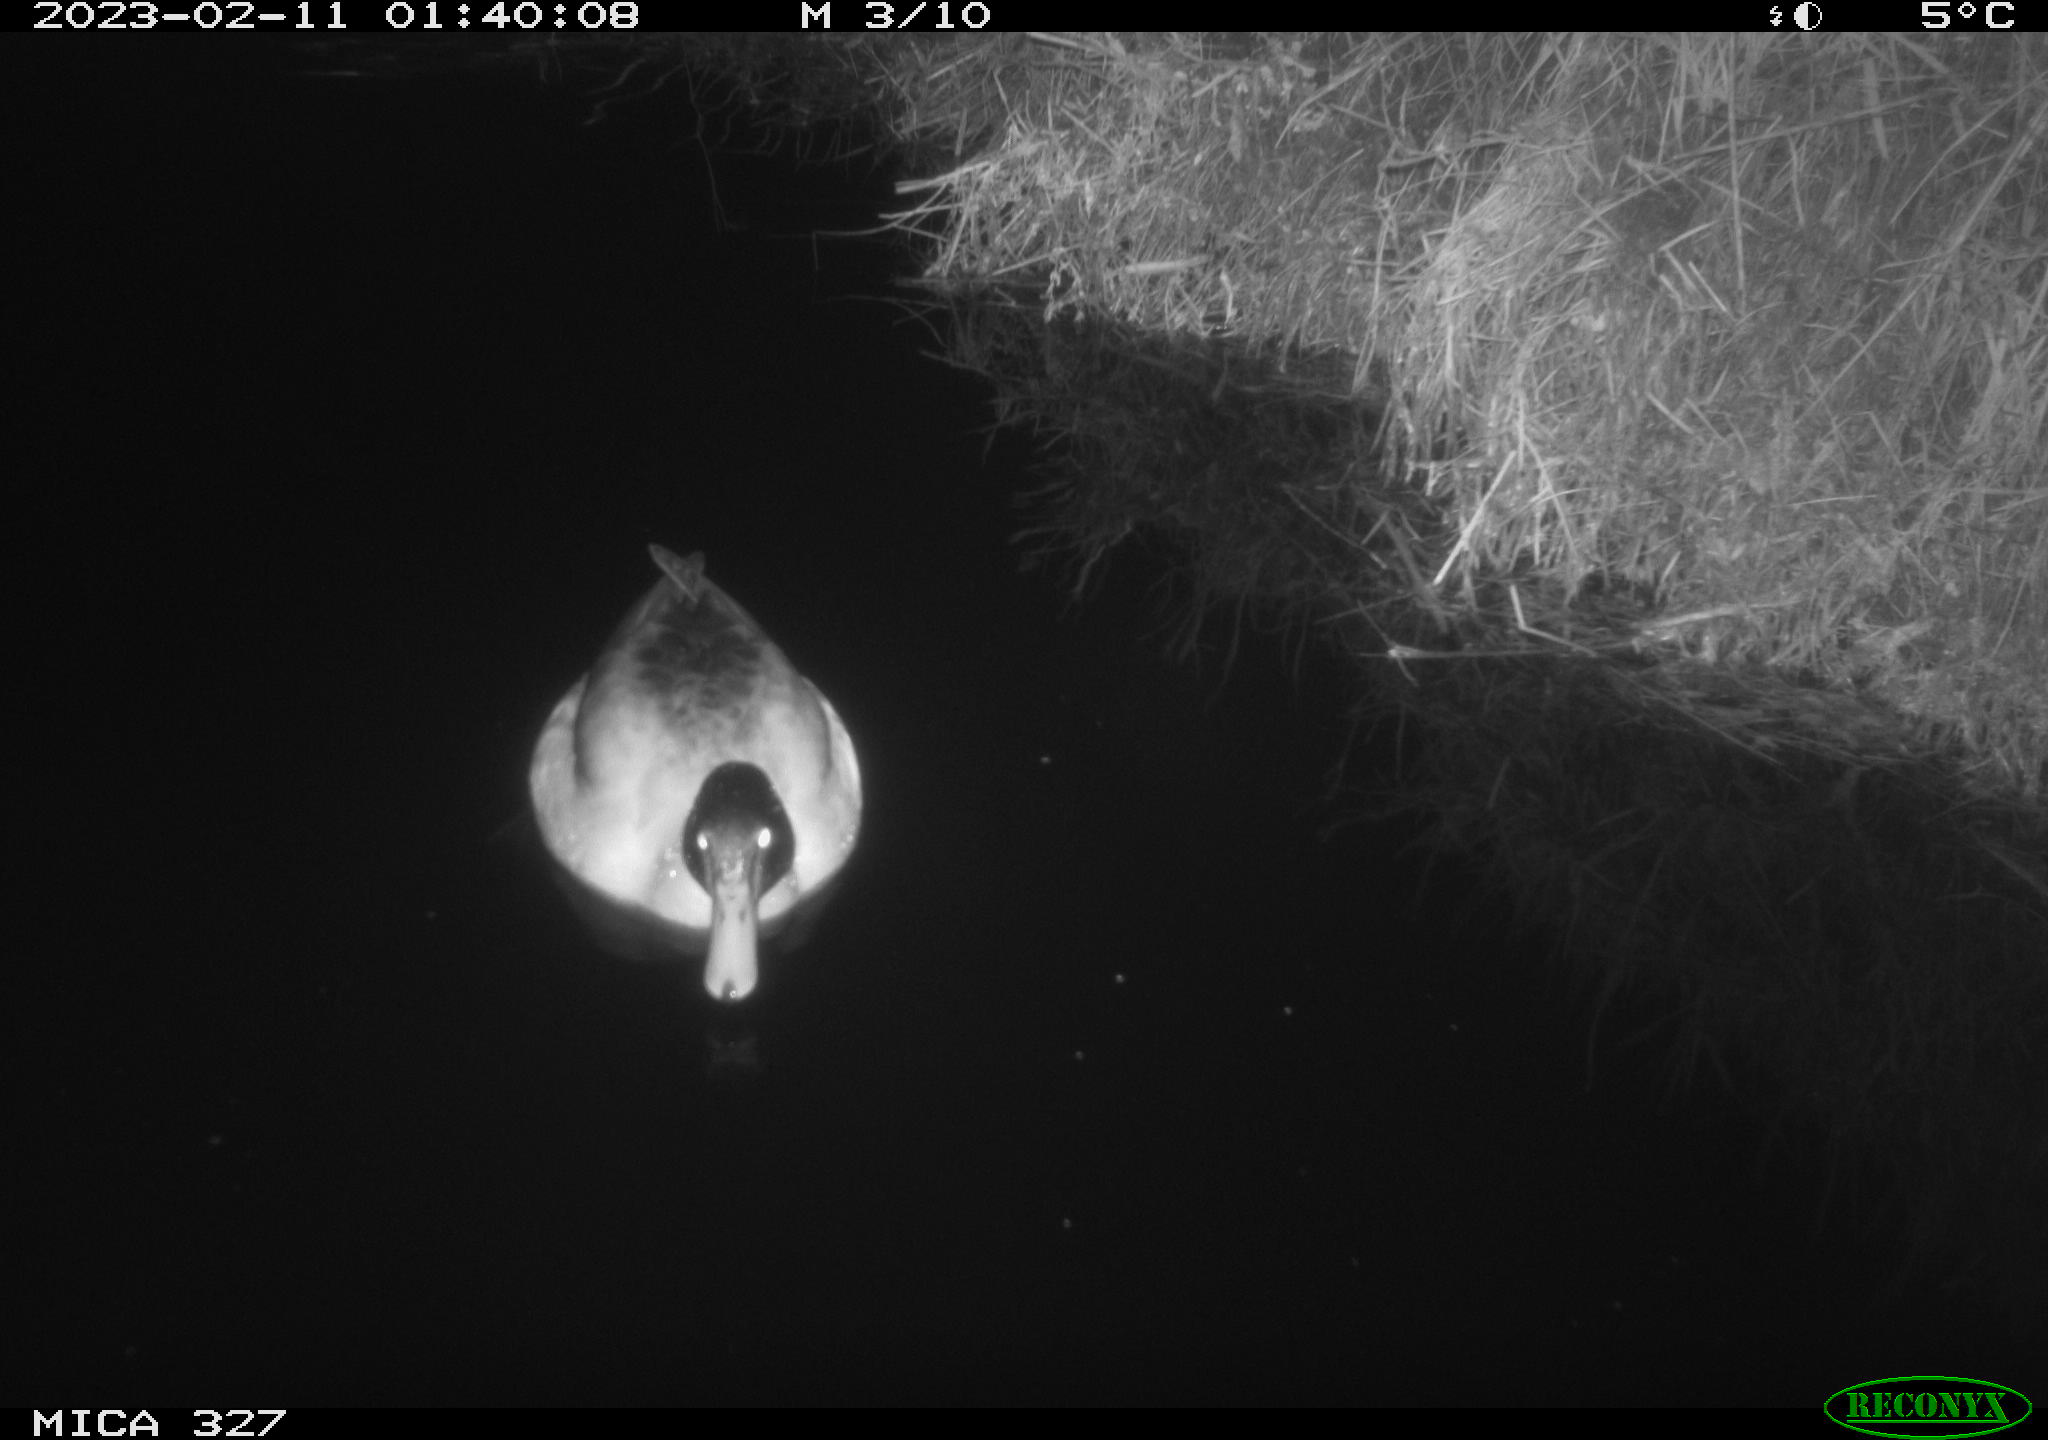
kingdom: Animalia
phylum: Chordata
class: Aves
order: Anseriformes
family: Anatidae
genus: Anas
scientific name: Anas
